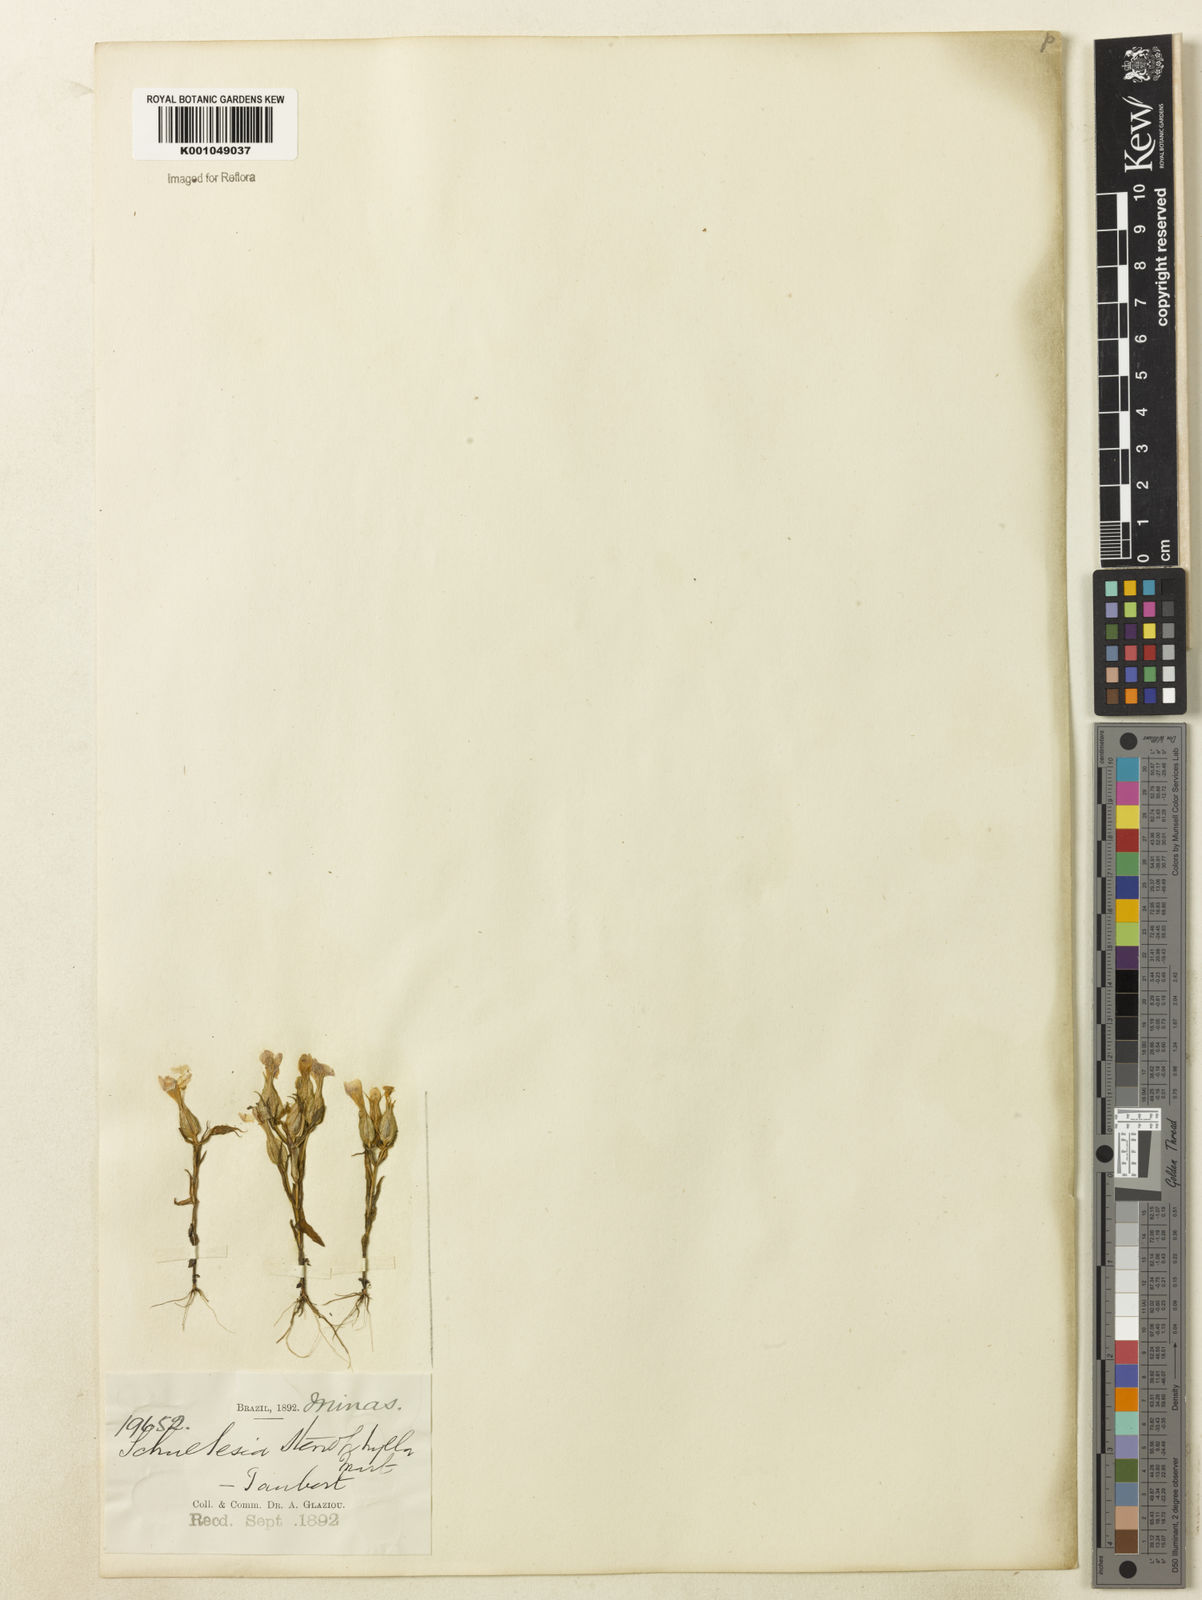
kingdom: Plantae
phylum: Tracheophyta
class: Magnoliopsida
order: Gentianales
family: Gentianaceae
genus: Schultesia
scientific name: Schultesia guianensis
